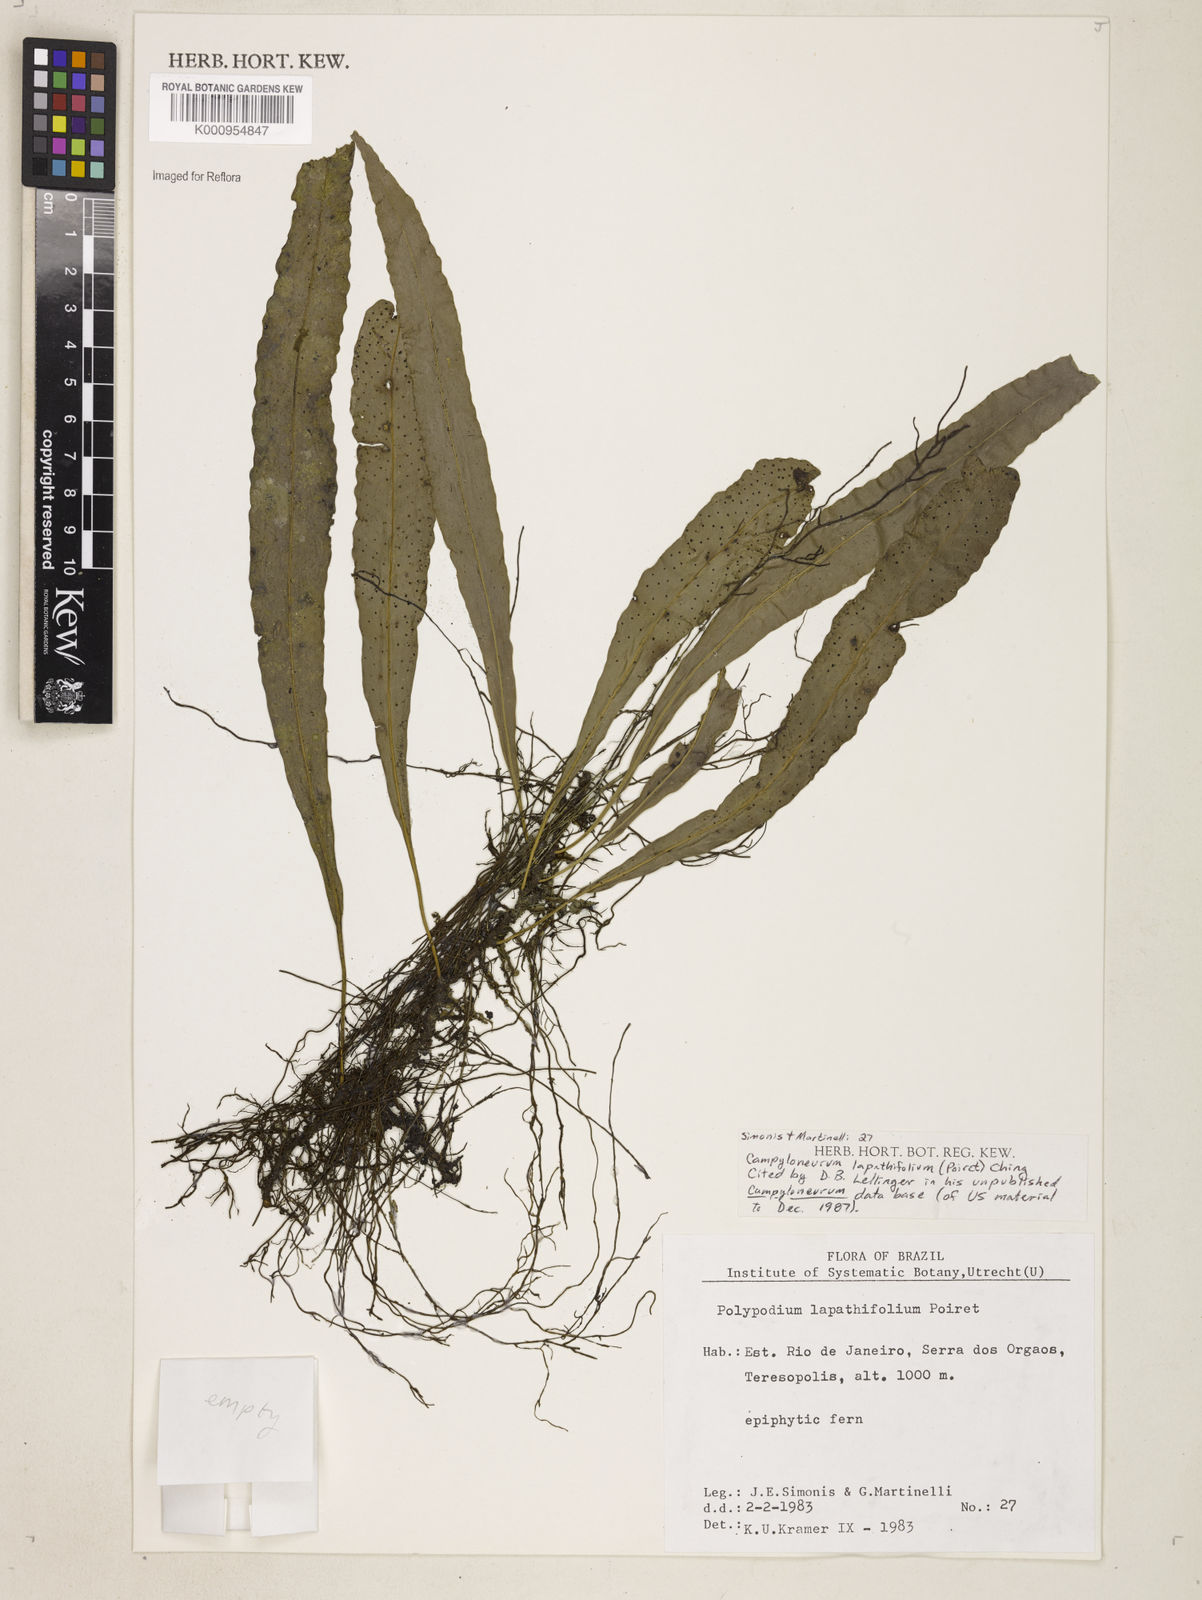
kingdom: Plantae
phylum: Tracheophyta
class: Polypodiopsida
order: Polypodiales
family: Polypodiaceae
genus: Campyloneurum
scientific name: Campyloneurum repens
